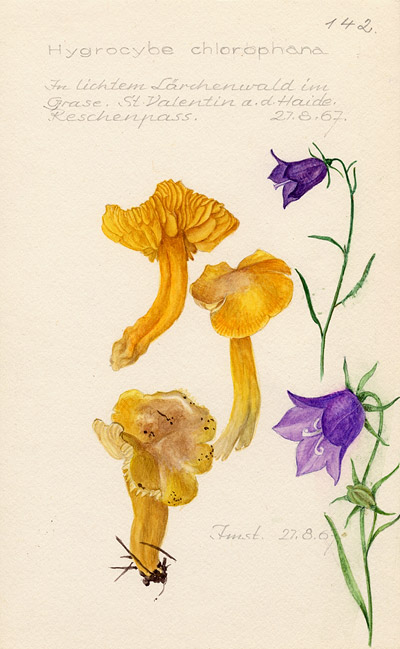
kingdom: Fungi
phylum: Basidiomycota
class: Agaricomycetes
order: Agaricales
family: Hygrophoraceae
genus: Hygrocybe
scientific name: Hygrocybe chlorophana
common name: Golden waxcap
